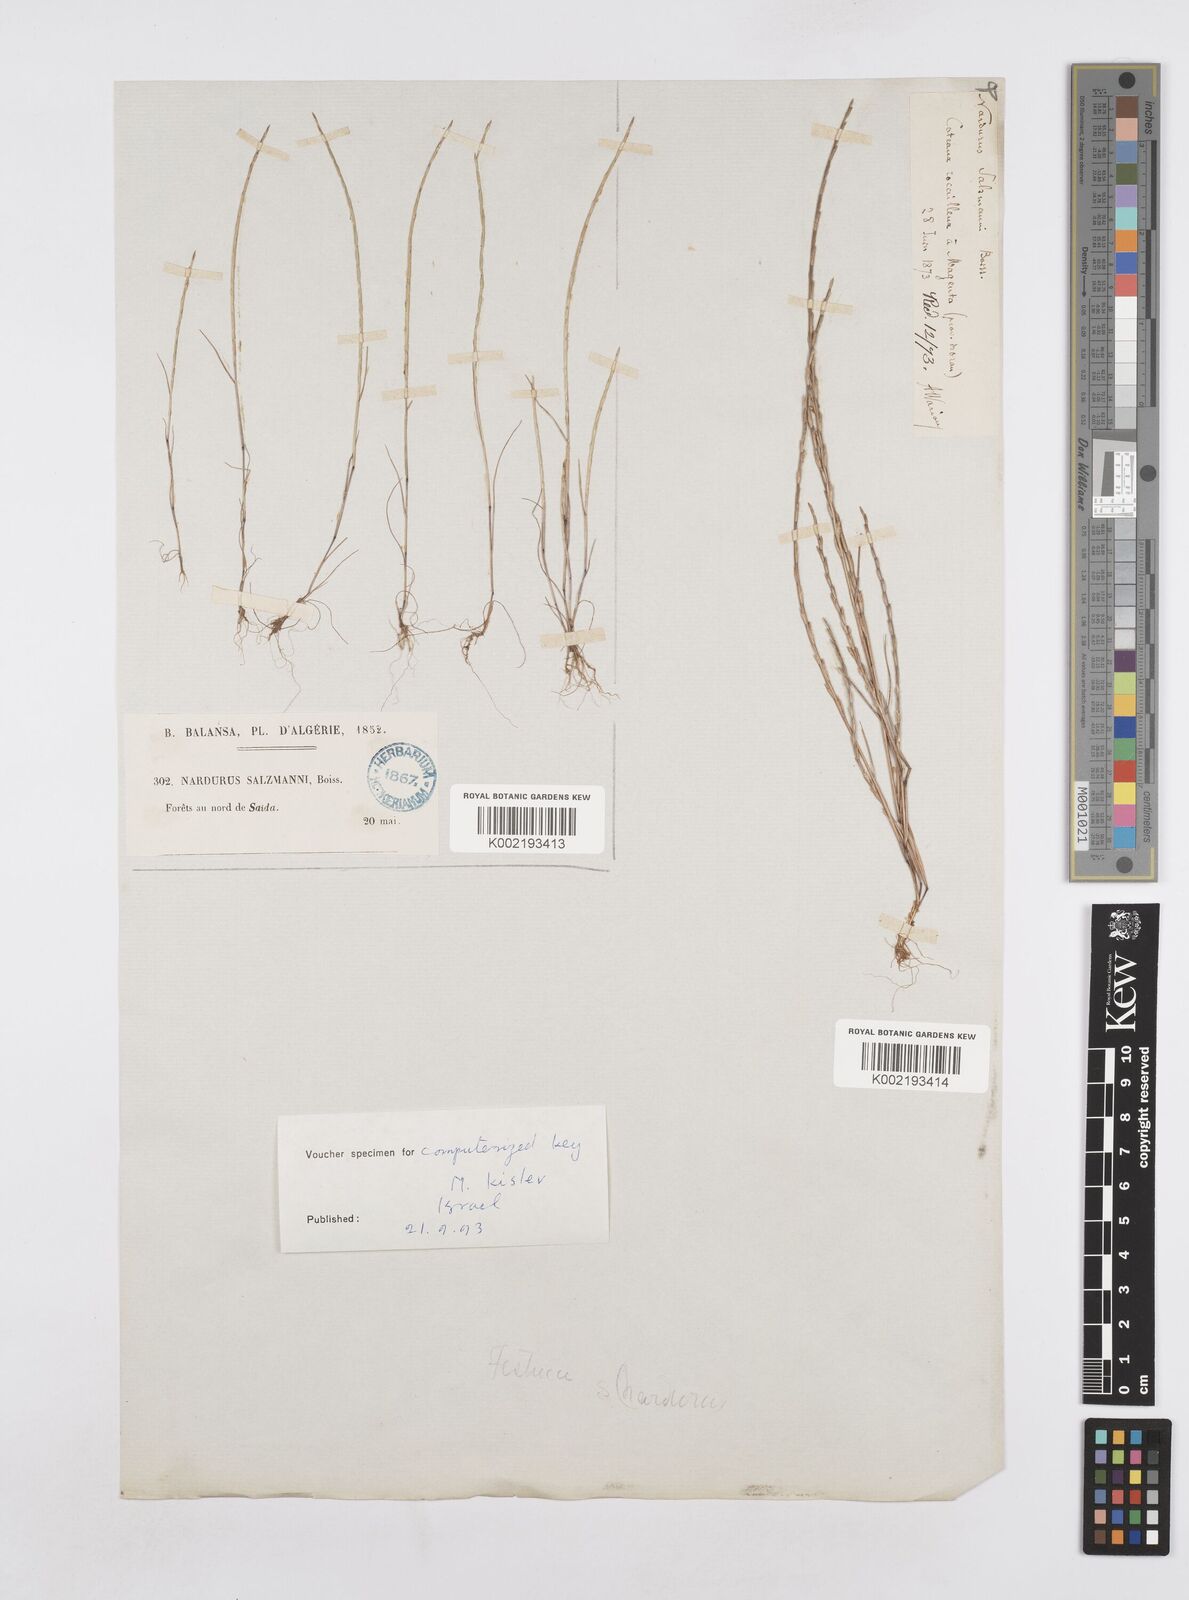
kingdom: Plantae
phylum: Tracheophyta
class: Liliopsida
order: Poales
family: Poaceae
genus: Festuca
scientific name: Festuca salzmannii
